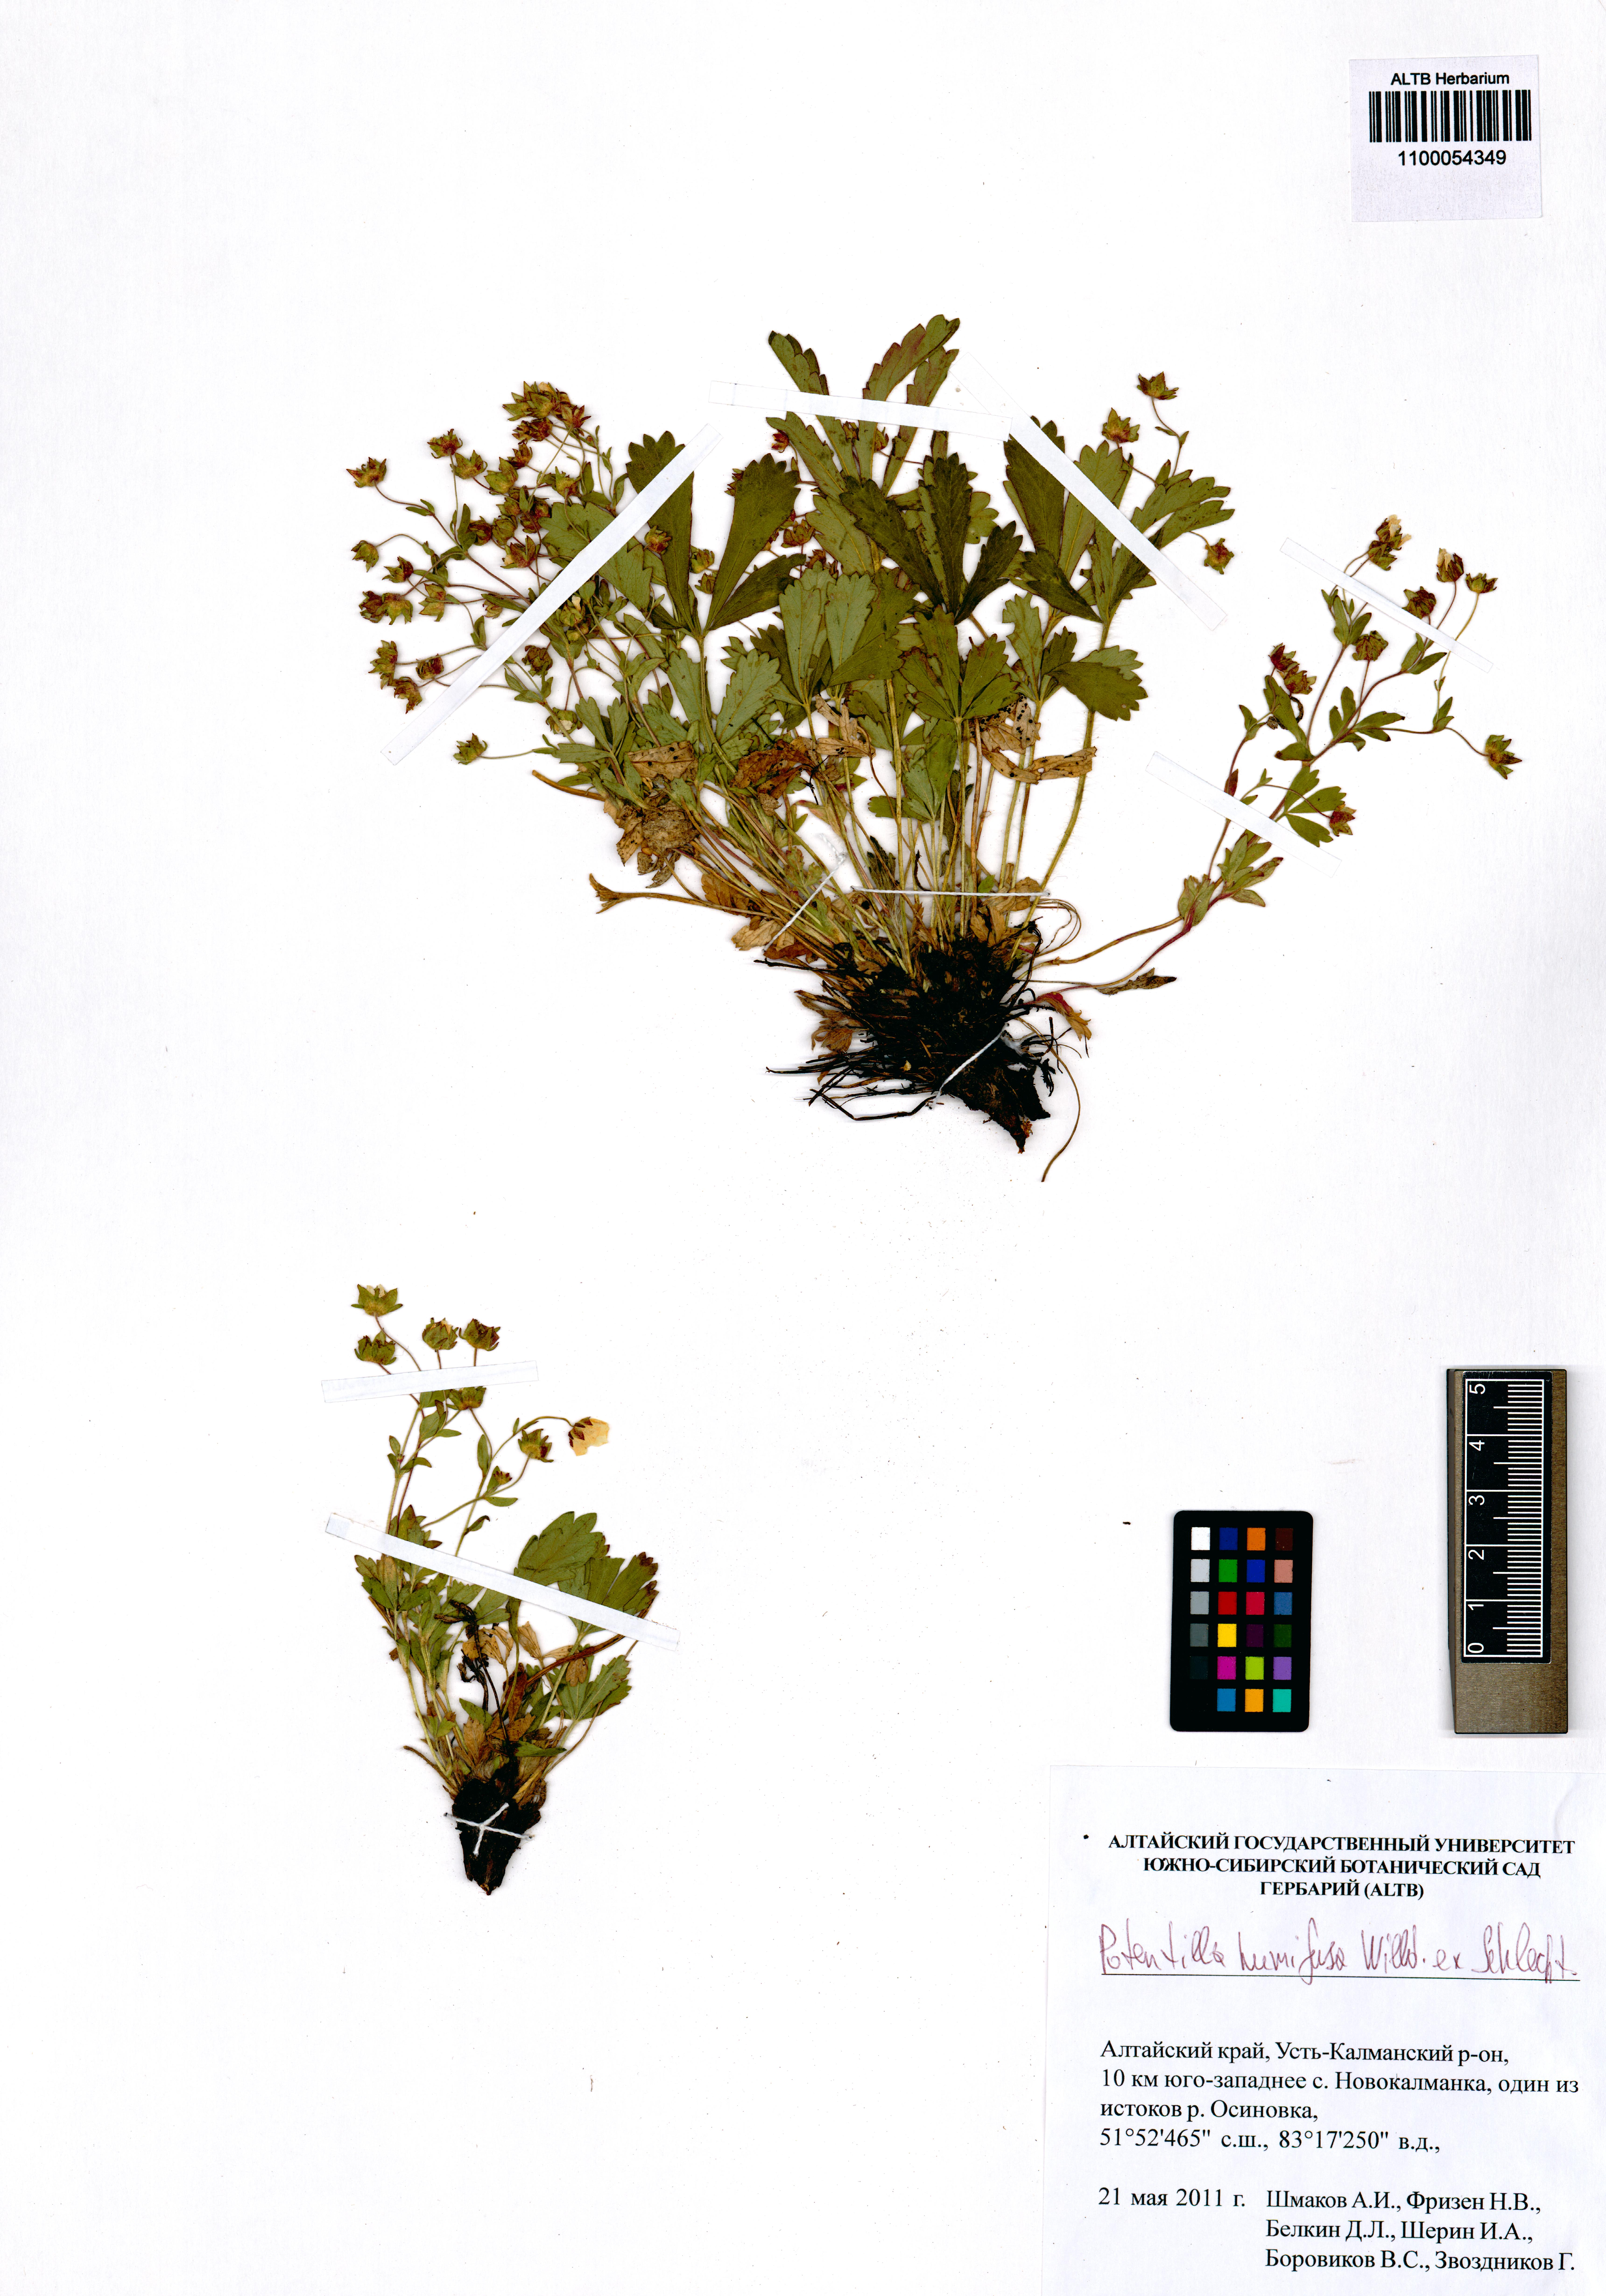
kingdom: Plantae
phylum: Tracheophyta
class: Magnoliopsida
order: Rosales
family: Rosaceae
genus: Potentilla
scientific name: Potentilla humifusa
